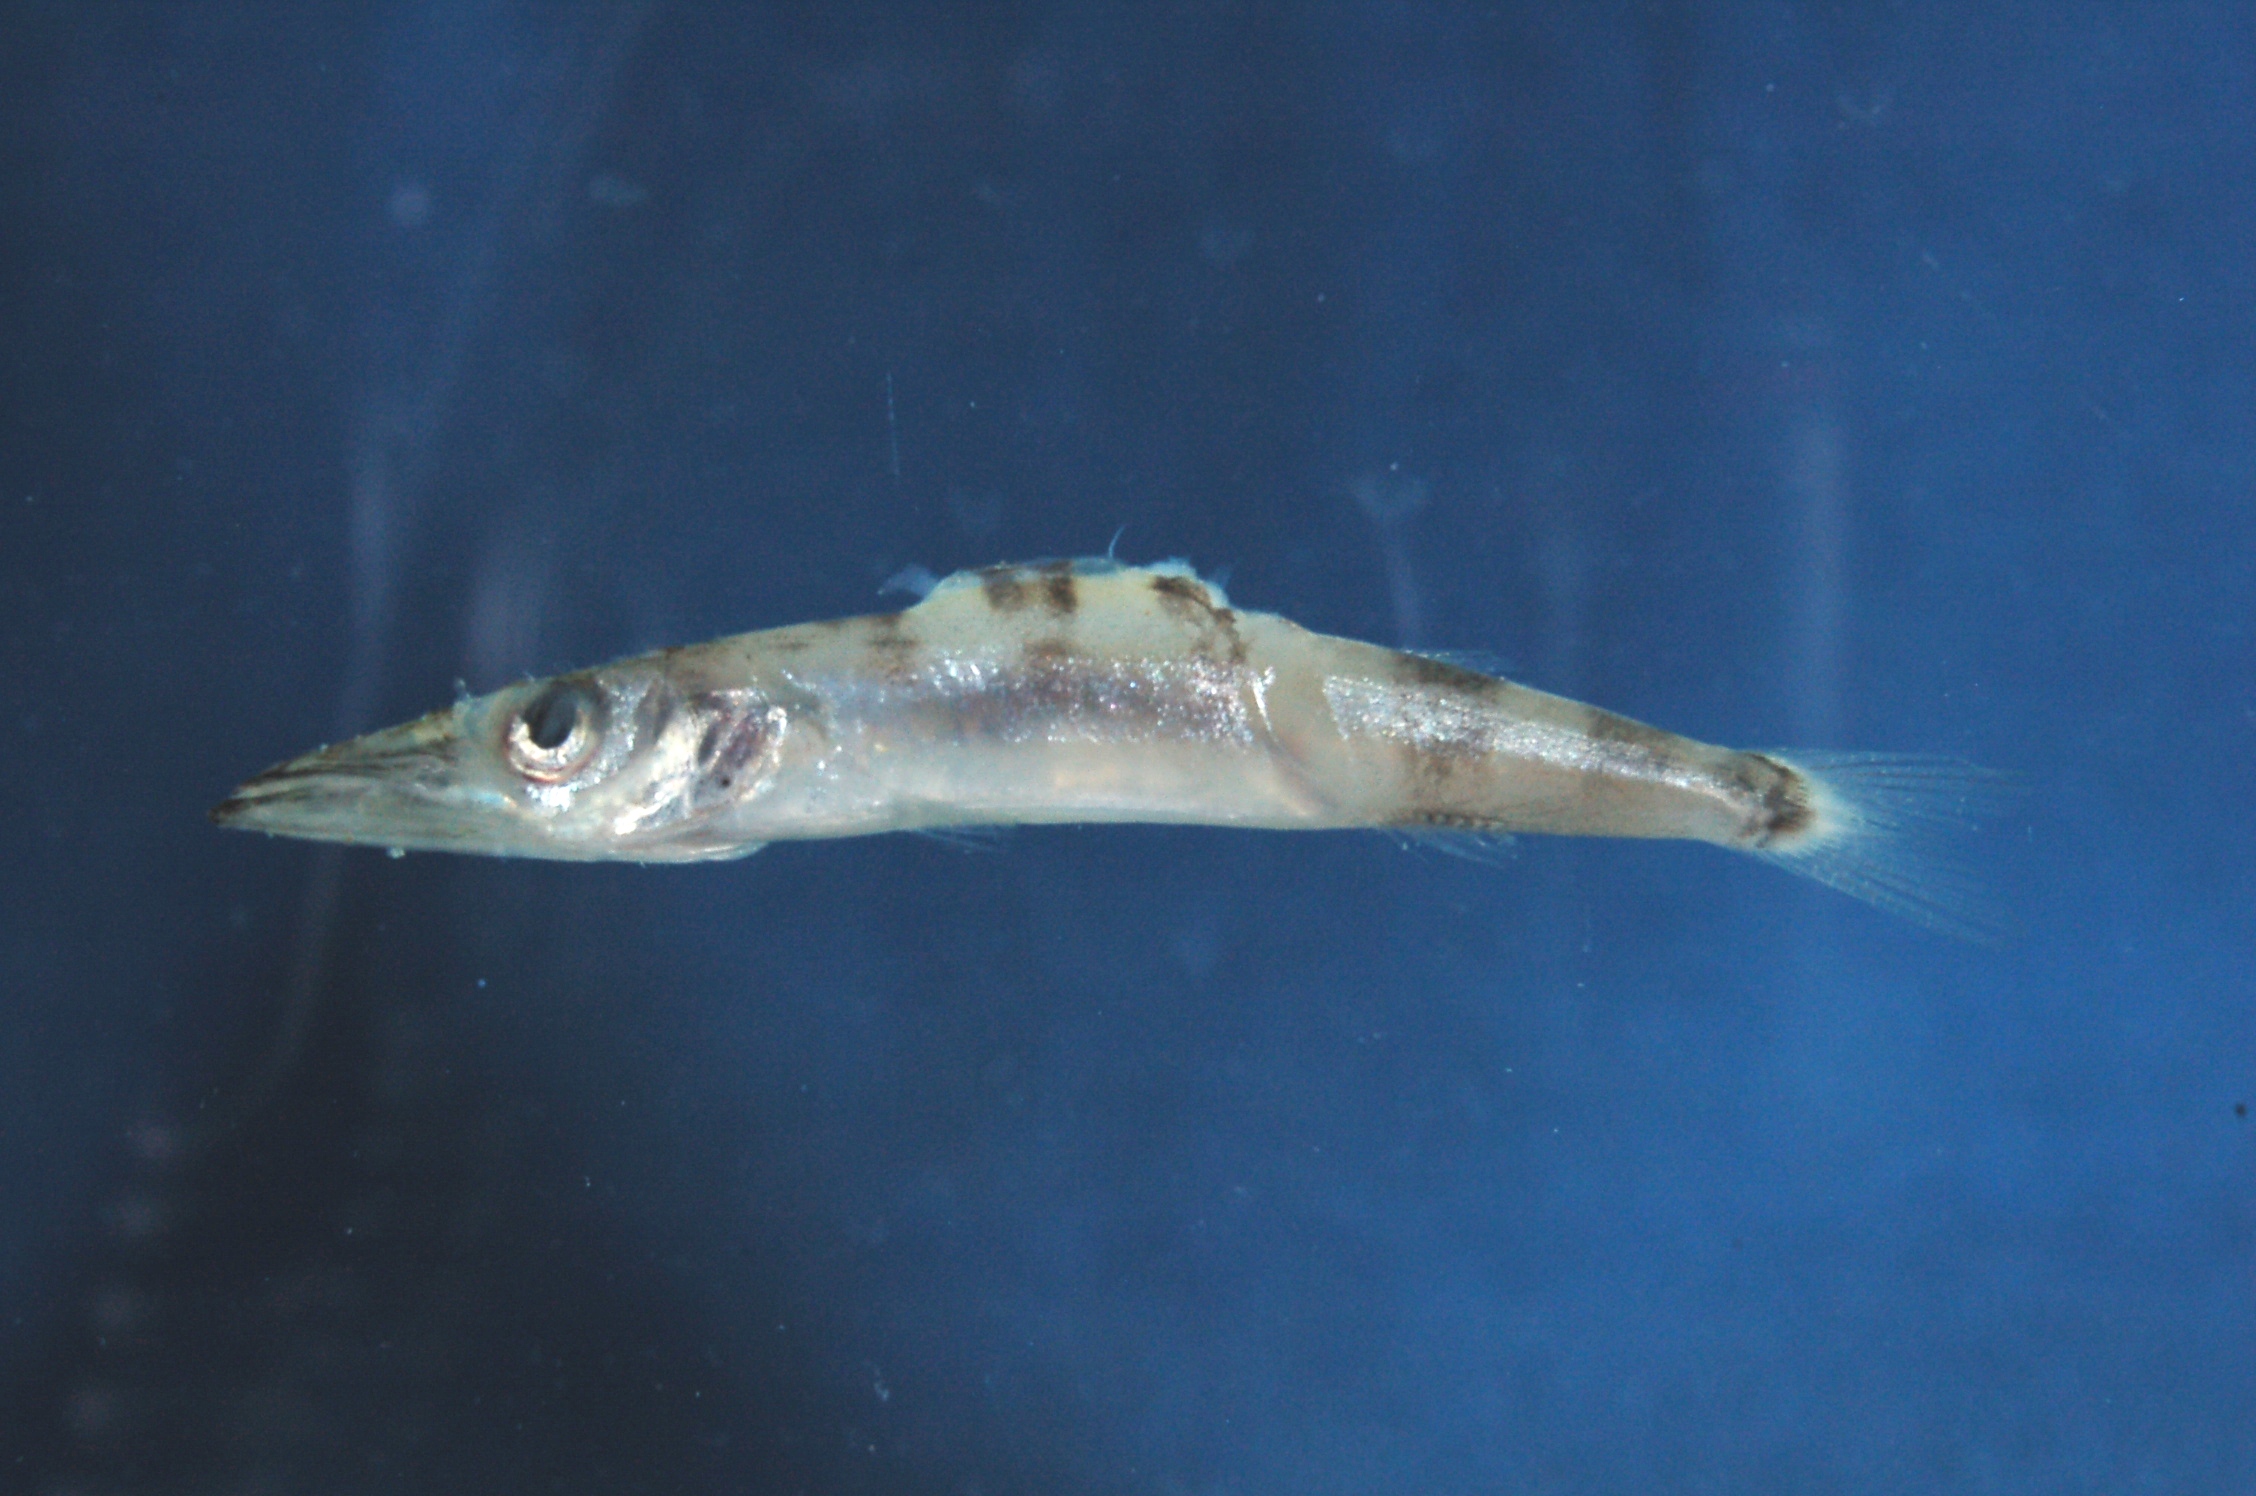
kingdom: Animalia
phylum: Chordata
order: Perciformes
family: Sphyraenidae
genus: Sphyraena
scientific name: Sphyraena
